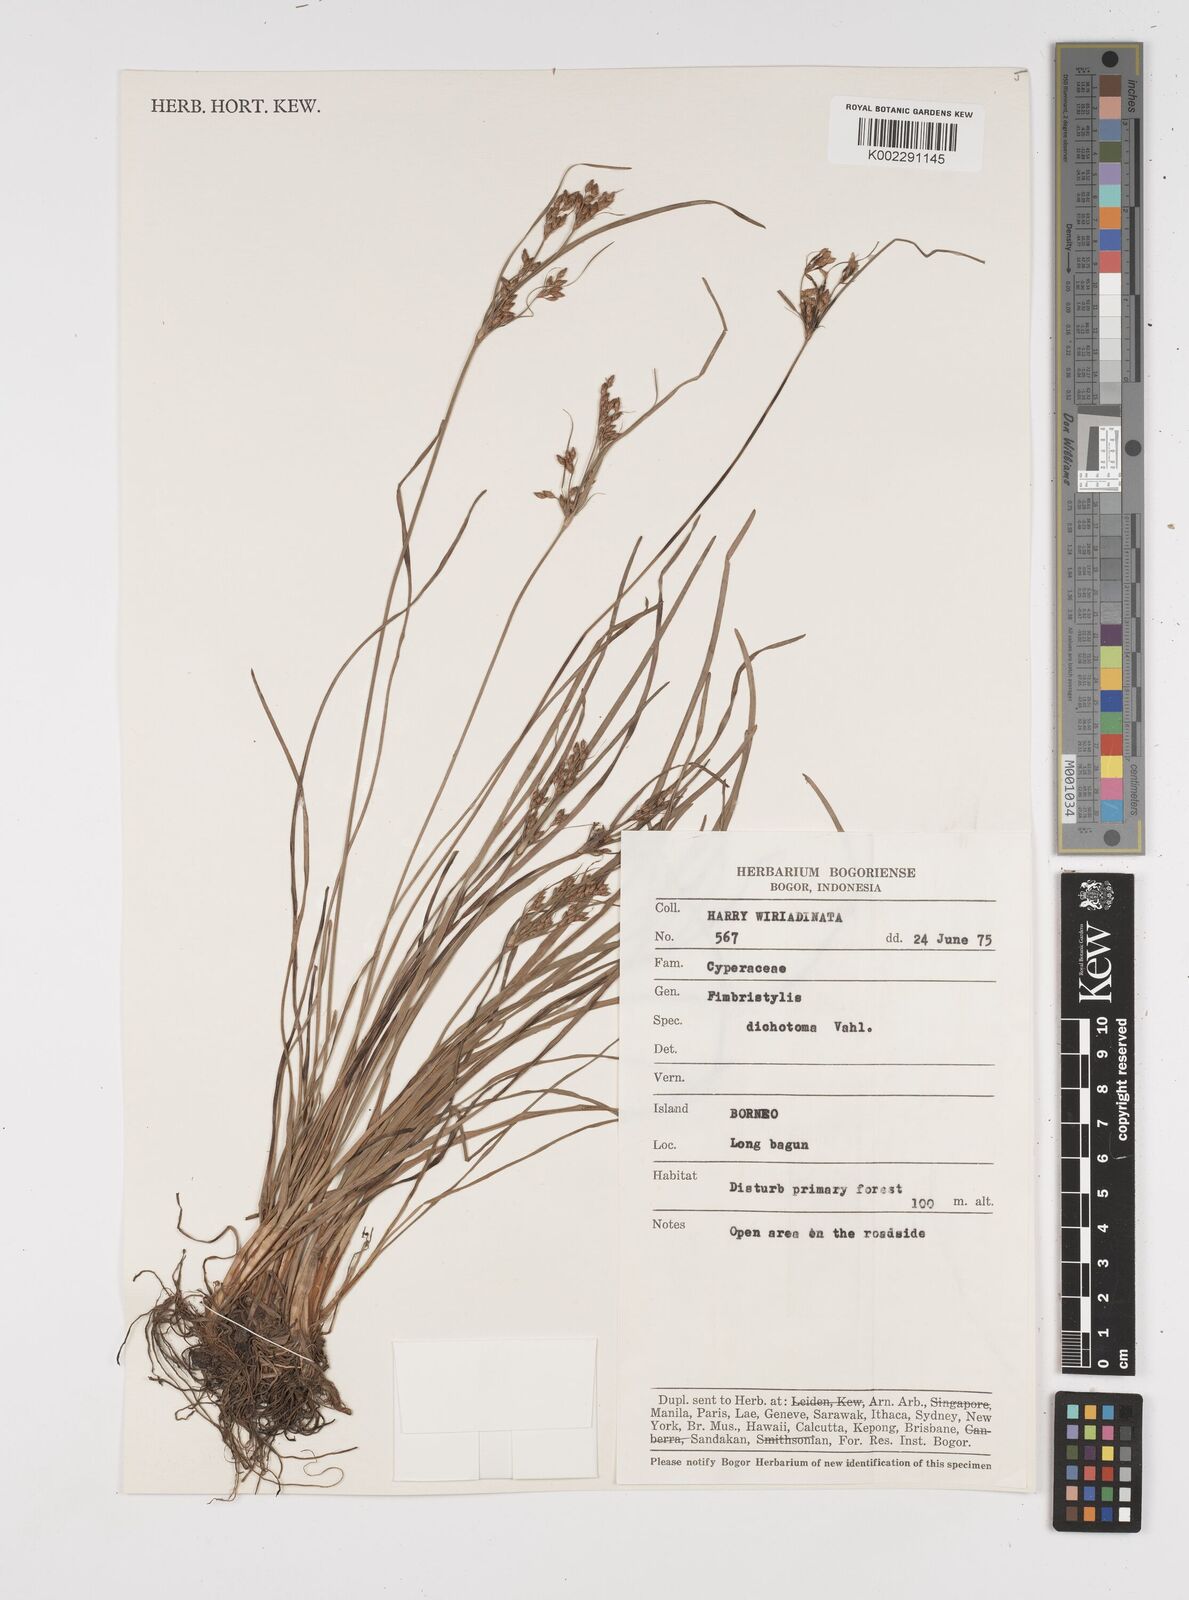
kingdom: Plantae
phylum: Tracheophyta
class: Liliopsida
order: Poales
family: Cyperaceae
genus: Fimbristylis
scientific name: Fimbristylis dichotoma
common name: Forked fimbry
